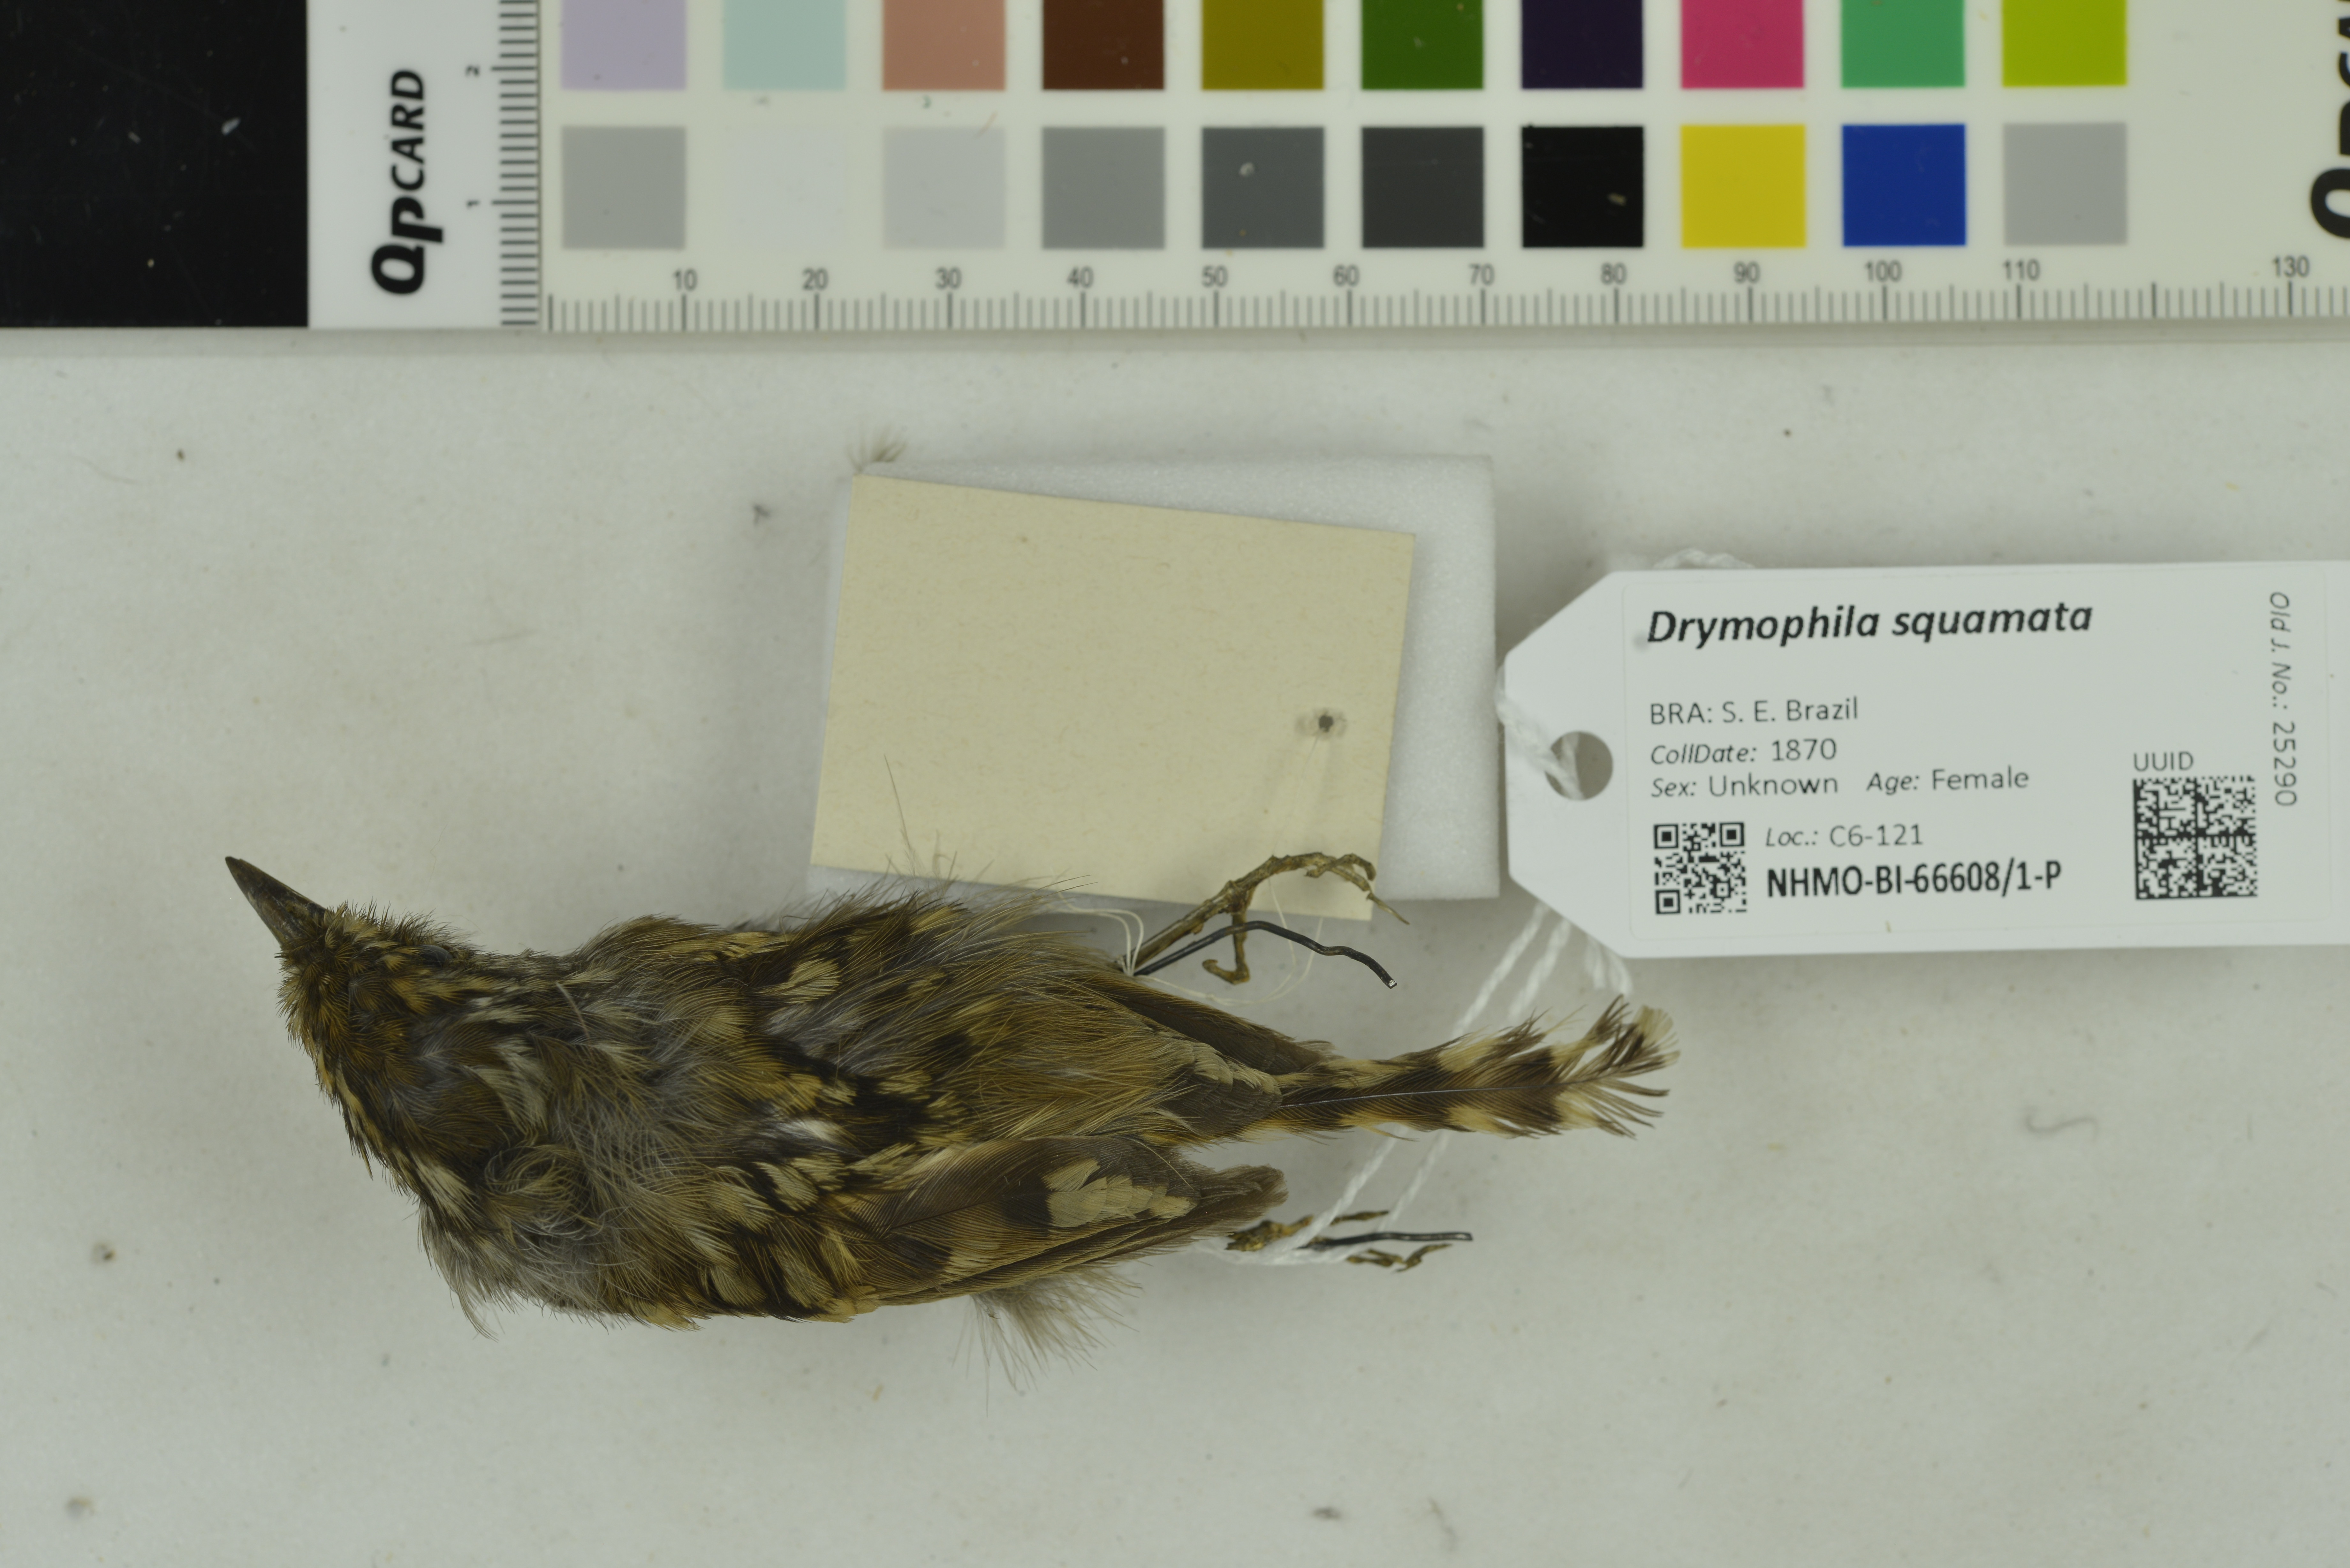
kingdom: Animalia
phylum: Chordata
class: Aves
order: Passeriformes
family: Thamnophilidae
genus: Drymophila
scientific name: Drymophila squamata
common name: Scaled antbird
